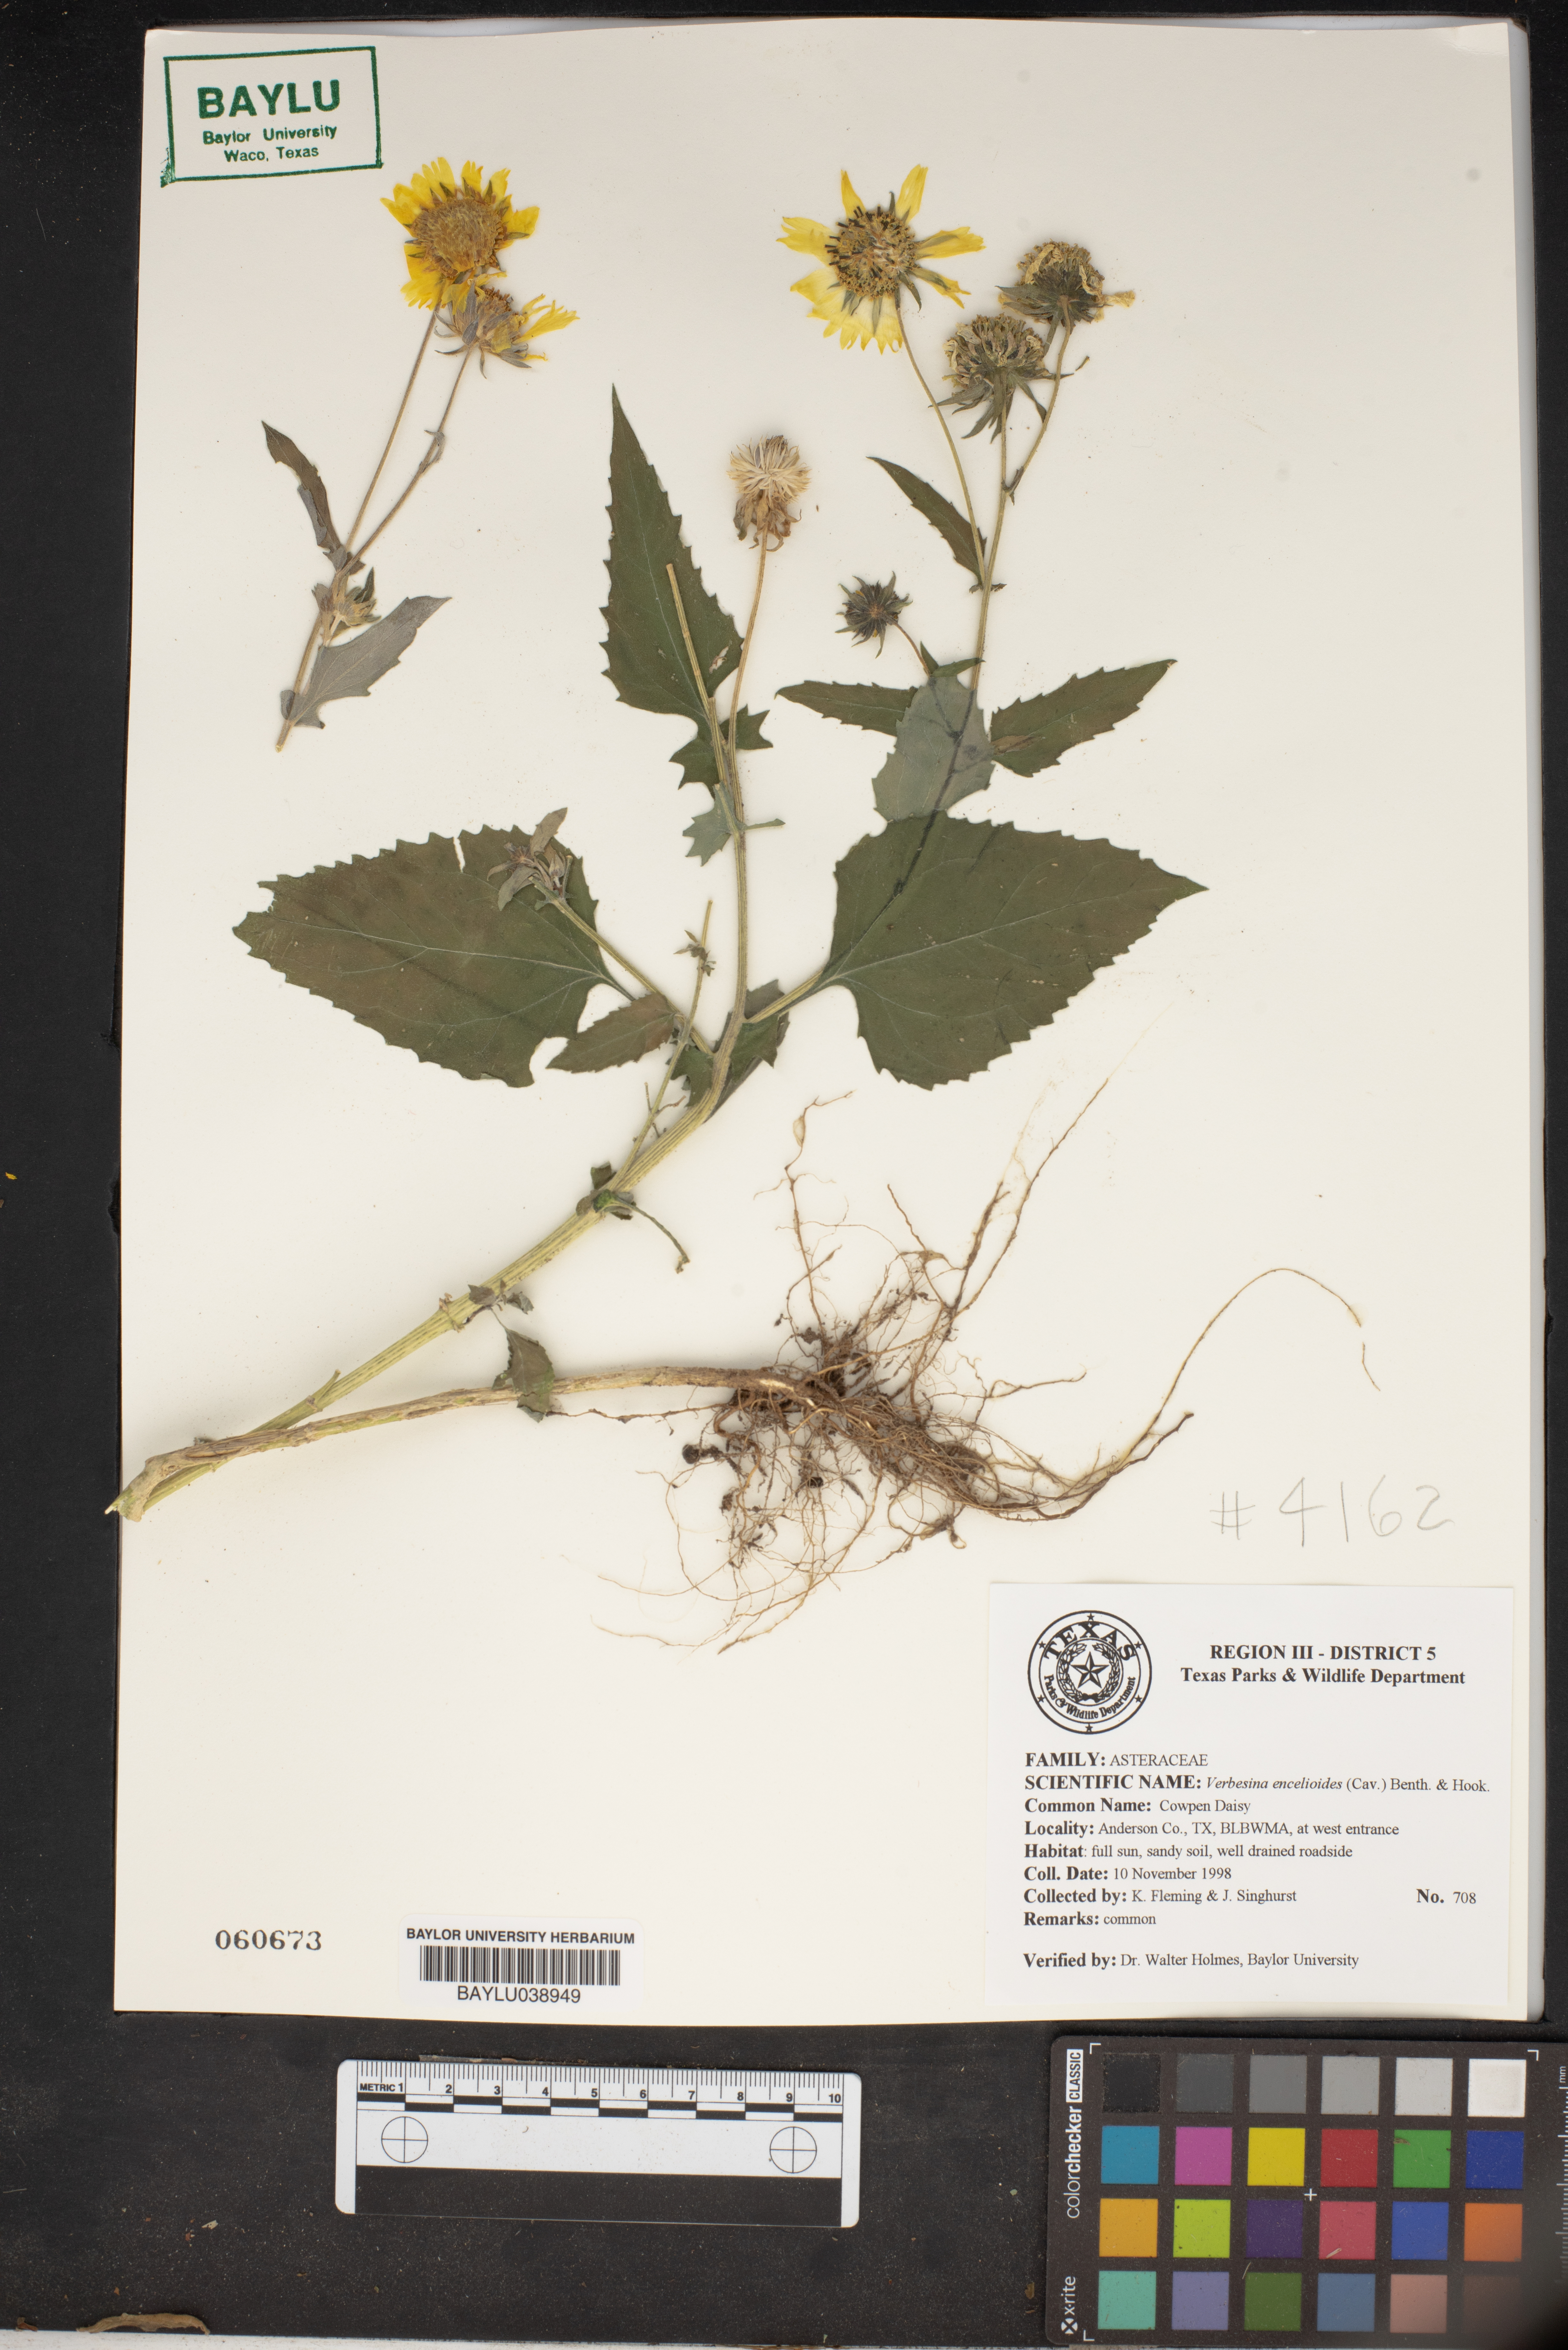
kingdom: Plantae
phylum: Tracheophyta
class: Magnoliopsida
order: Asterales
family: Asteraceae
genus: Verbesina
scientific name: Verbesina encelioides
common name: Golden crownbeard
